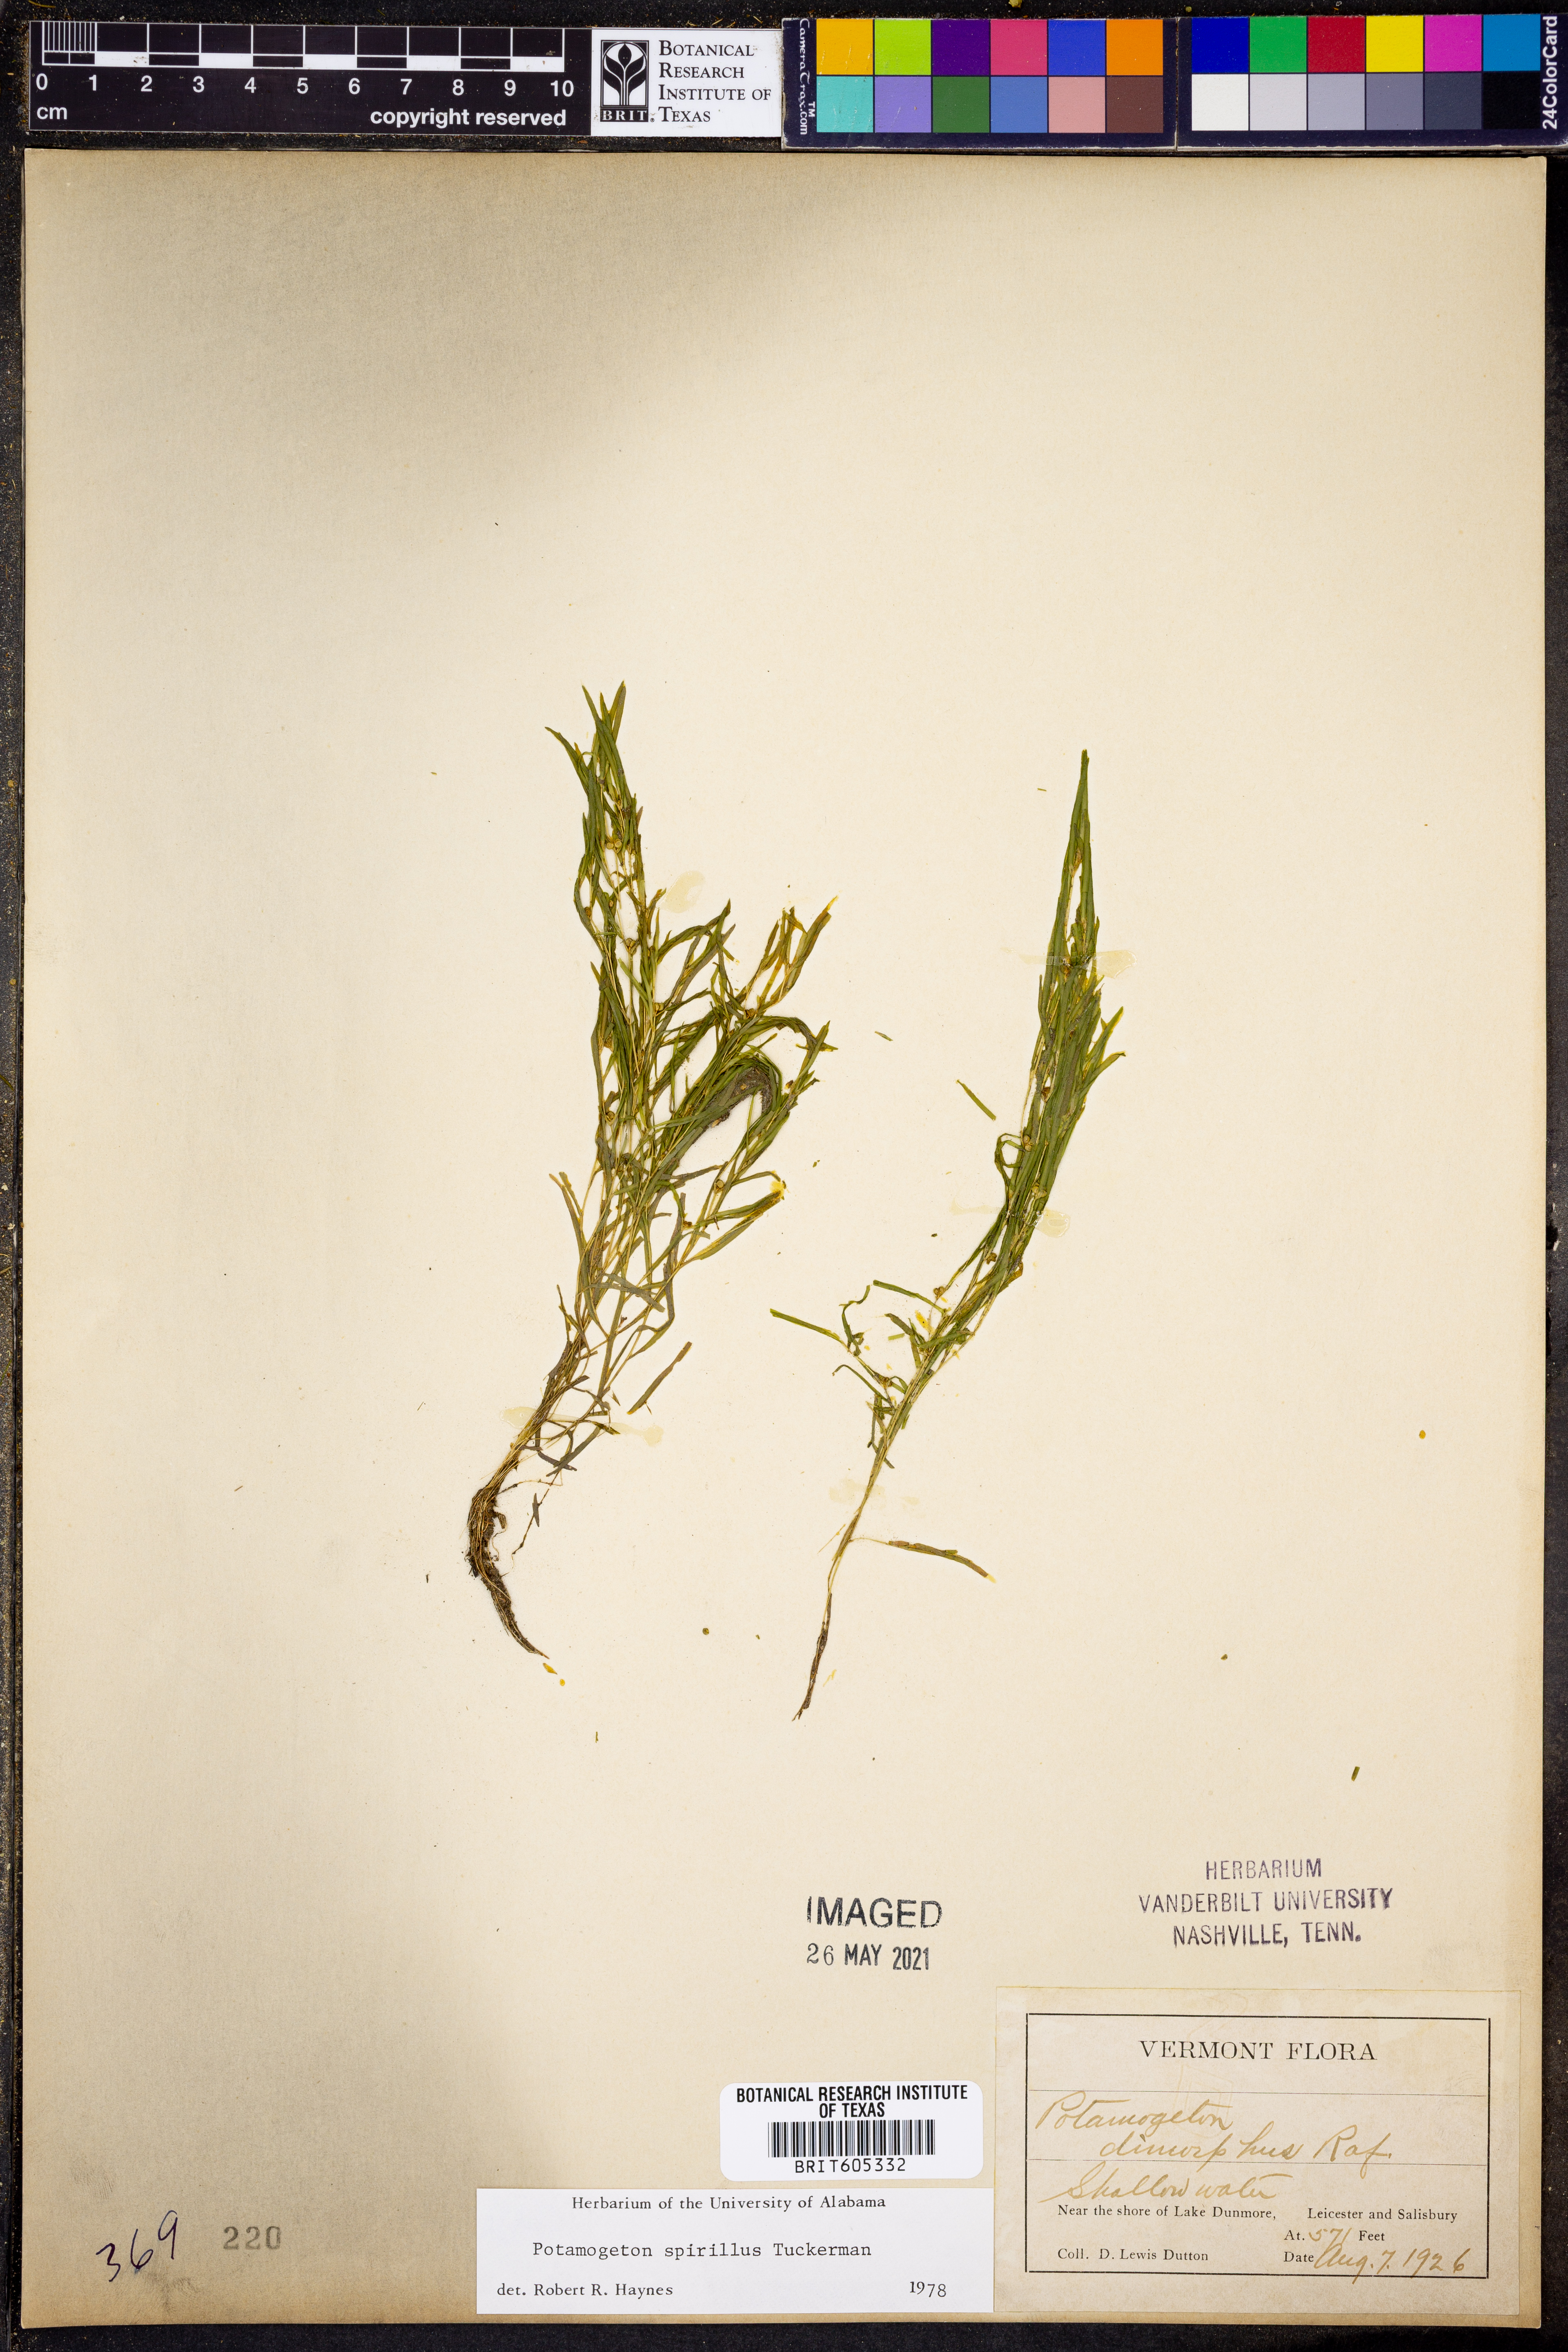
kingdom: Plantae
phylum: Tracheophyta
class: Liliopsida
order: Alismatales
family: Potamogetonaceae
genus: Potamogeton
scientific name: Potamogeton spirillus
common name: Northern snail-seed pondweed
